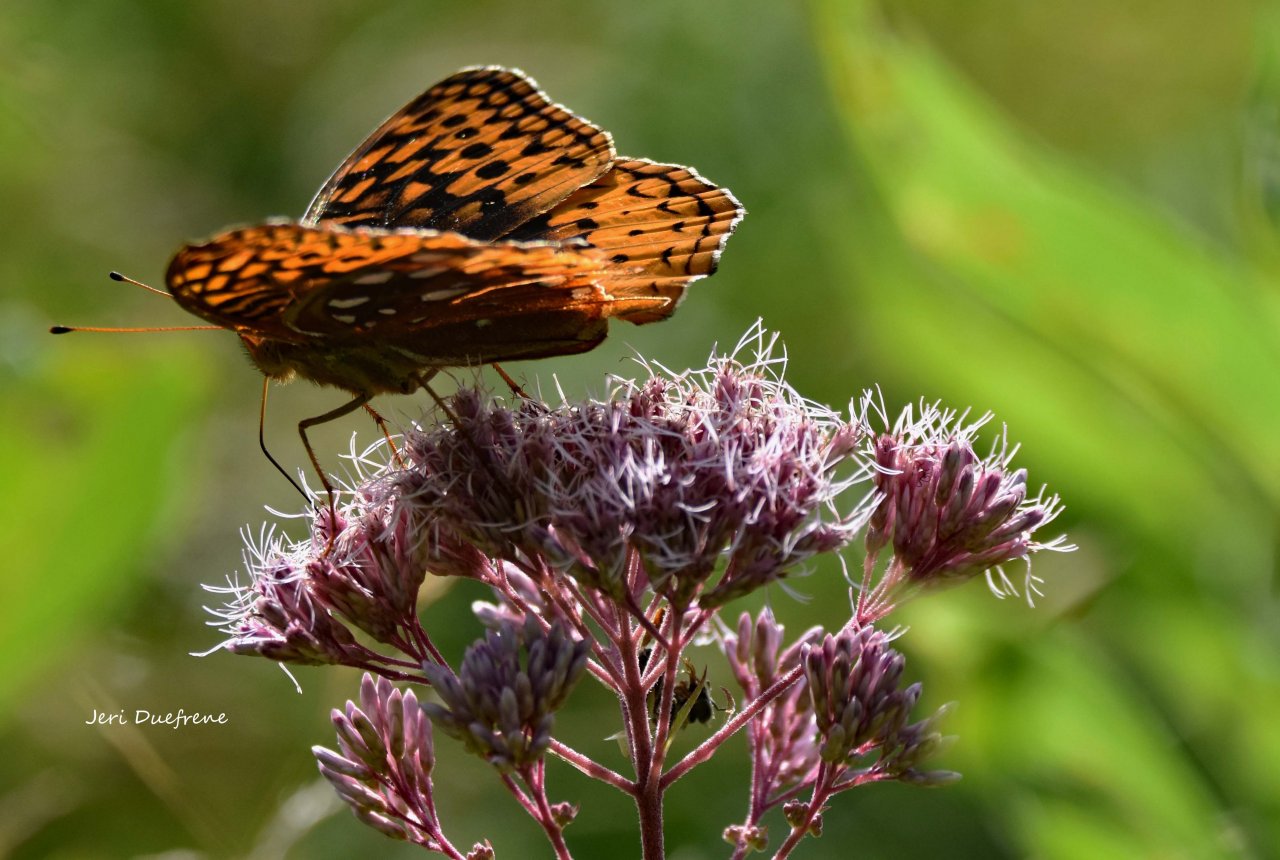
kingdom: Animalia
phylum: Arthropoda
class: Insecta
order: Lepidoptera
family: Nymphalidae
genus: Speyeria
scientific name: Speyeria cybele
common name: Great Spangled Fritillary
